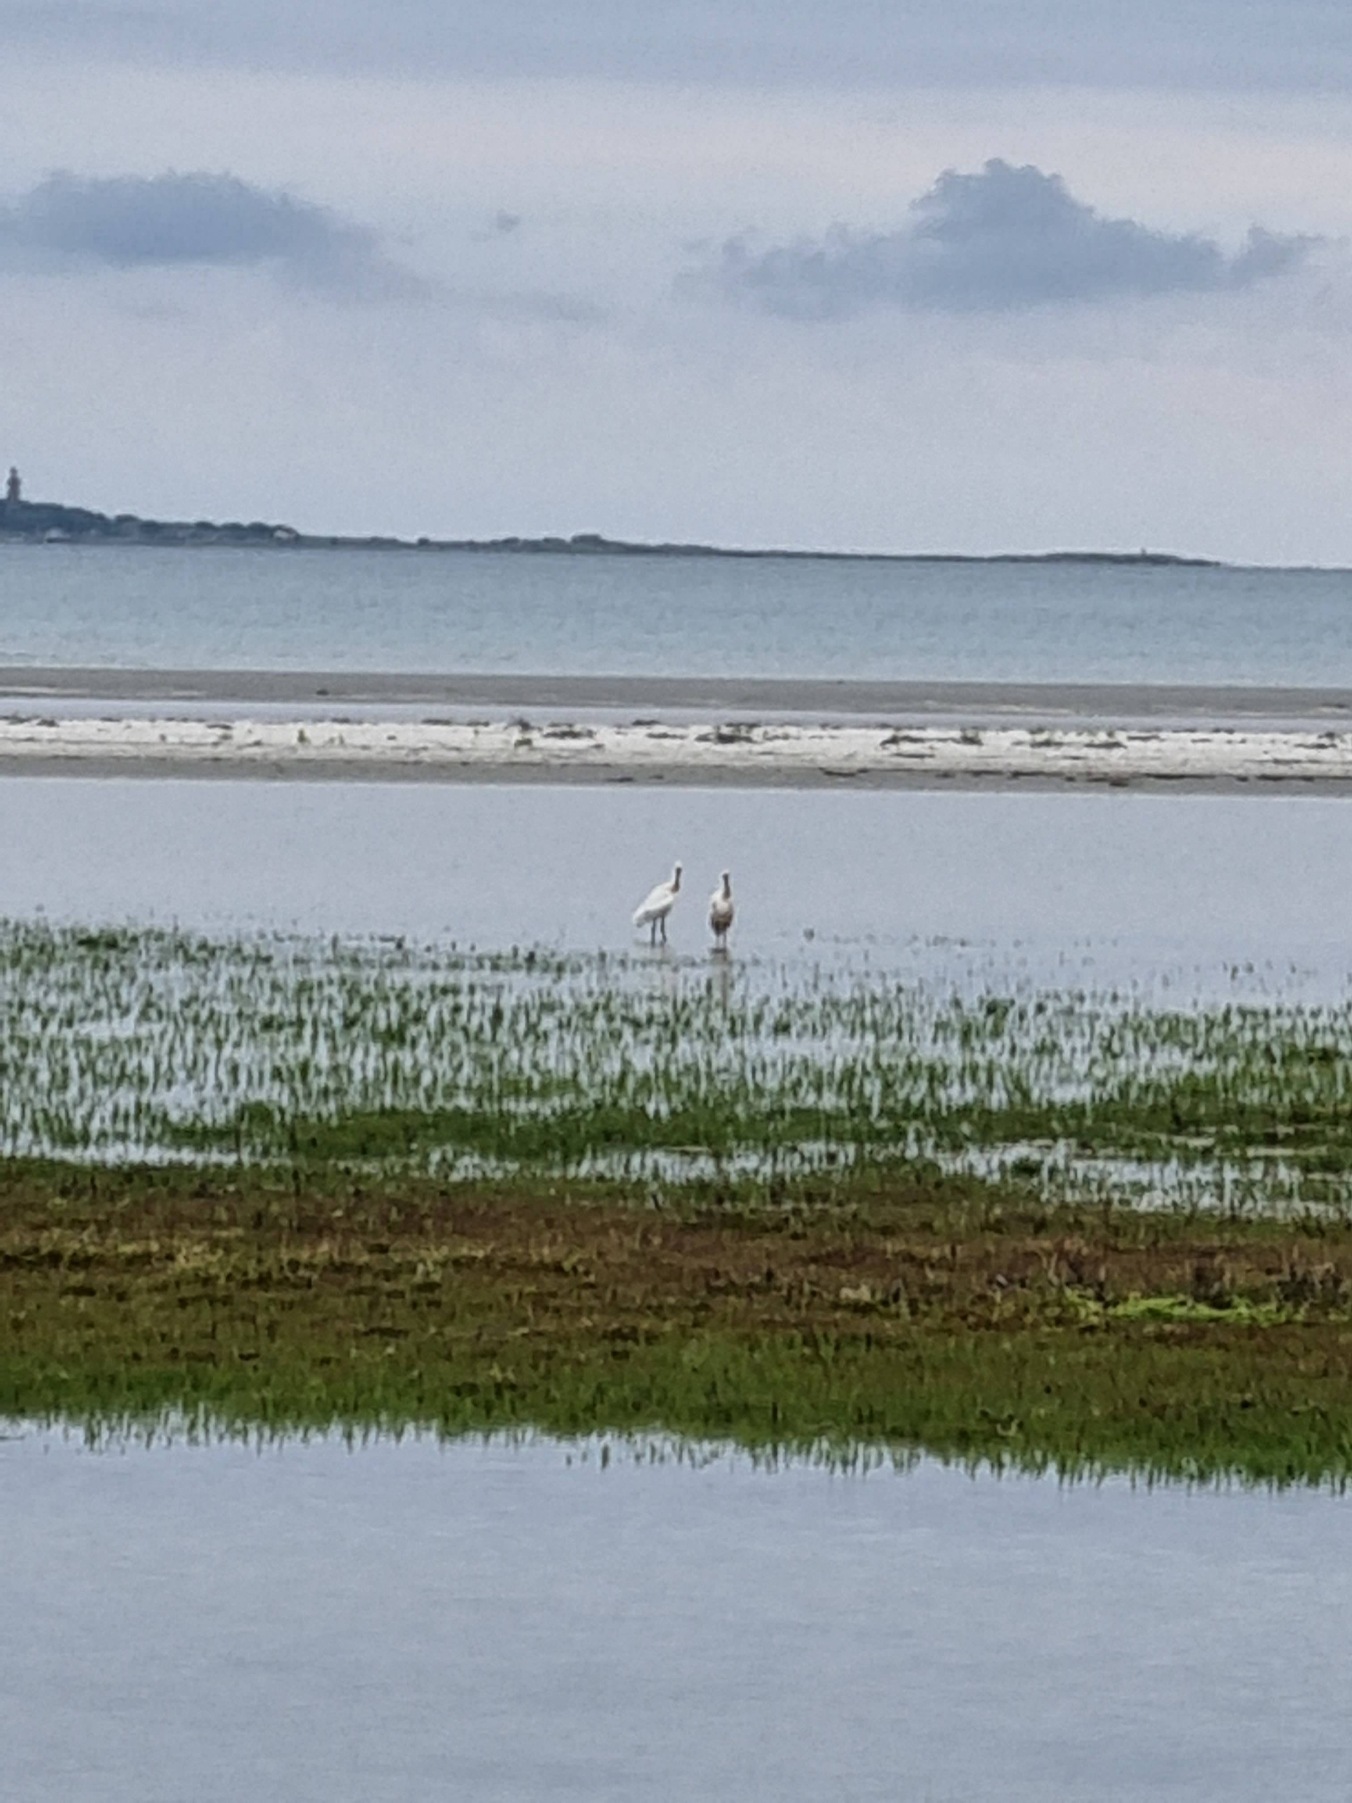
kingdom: Animalia
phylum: Chordata
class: Aves
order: Pelecaniformes
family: Threskiornithidae
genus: Platalea
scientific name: Platalea leucorodia
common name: Skestork
